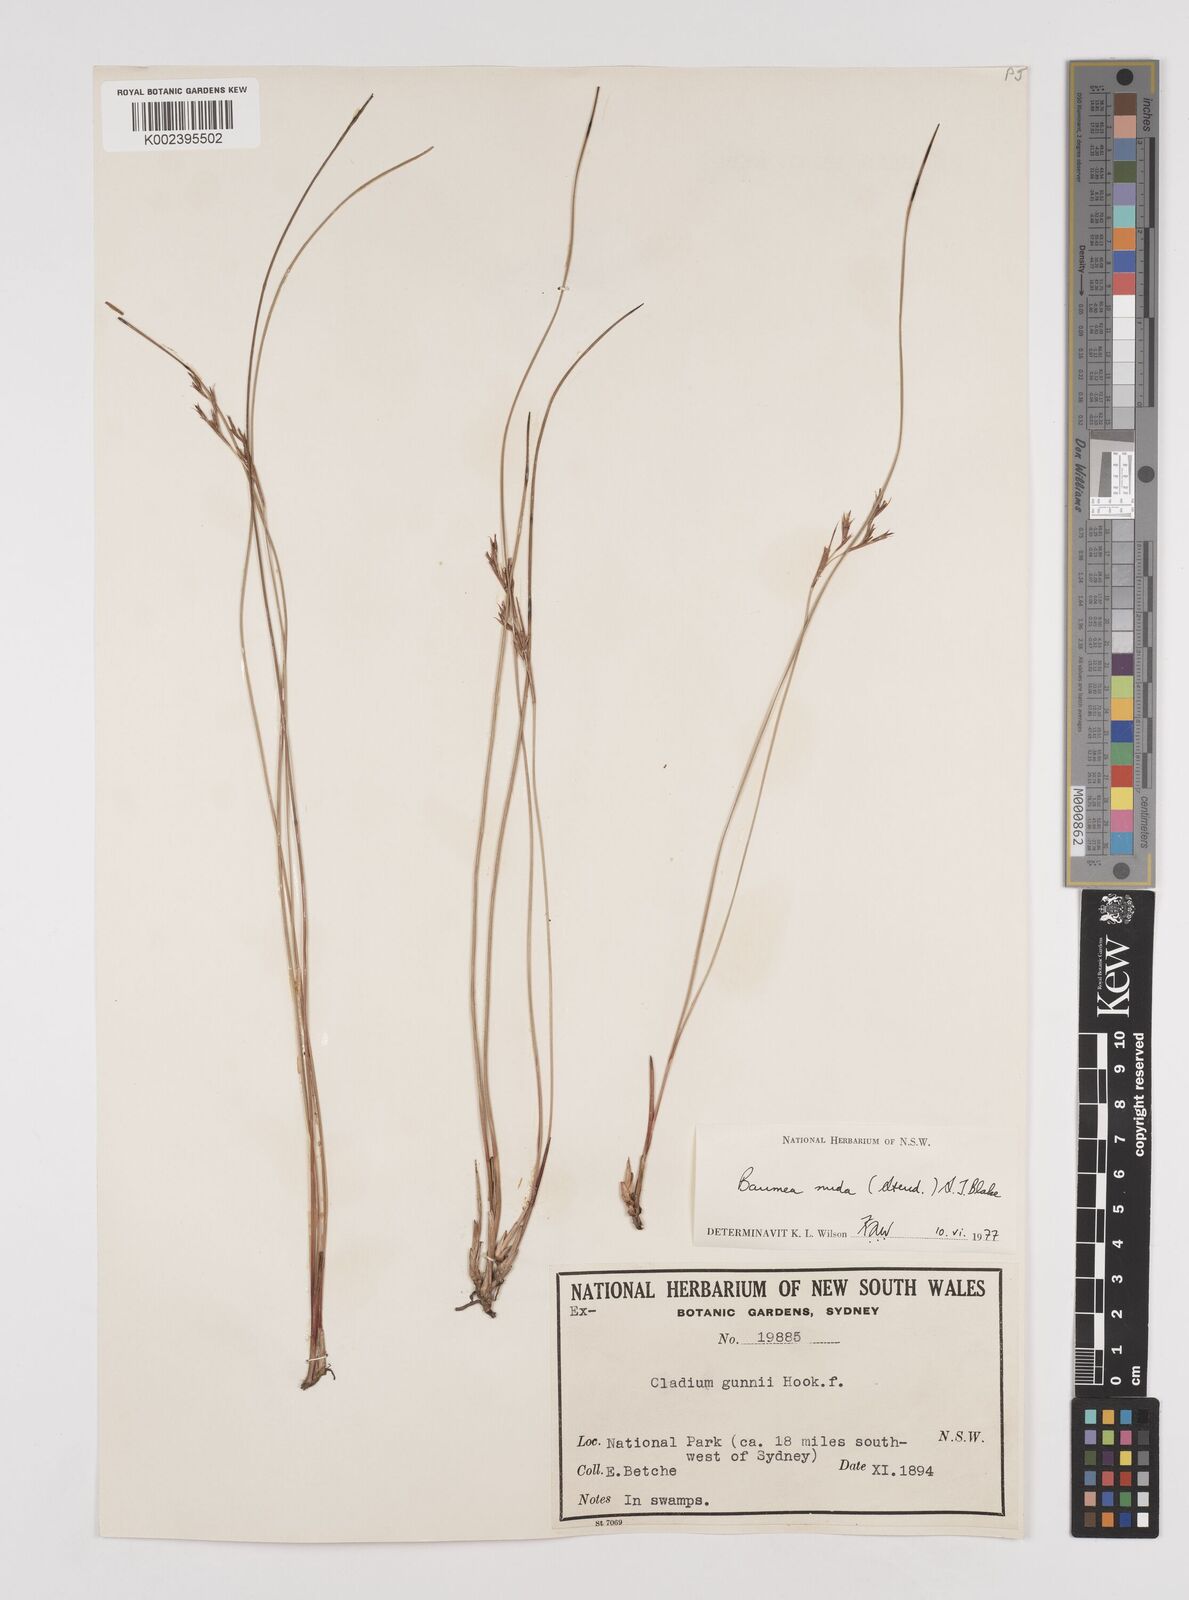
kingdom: Plantae
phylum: Tracheophyta
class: Liliopsida
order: Poales
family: Cyperaceae
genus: Machaerina
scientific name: Machaerina nuda
